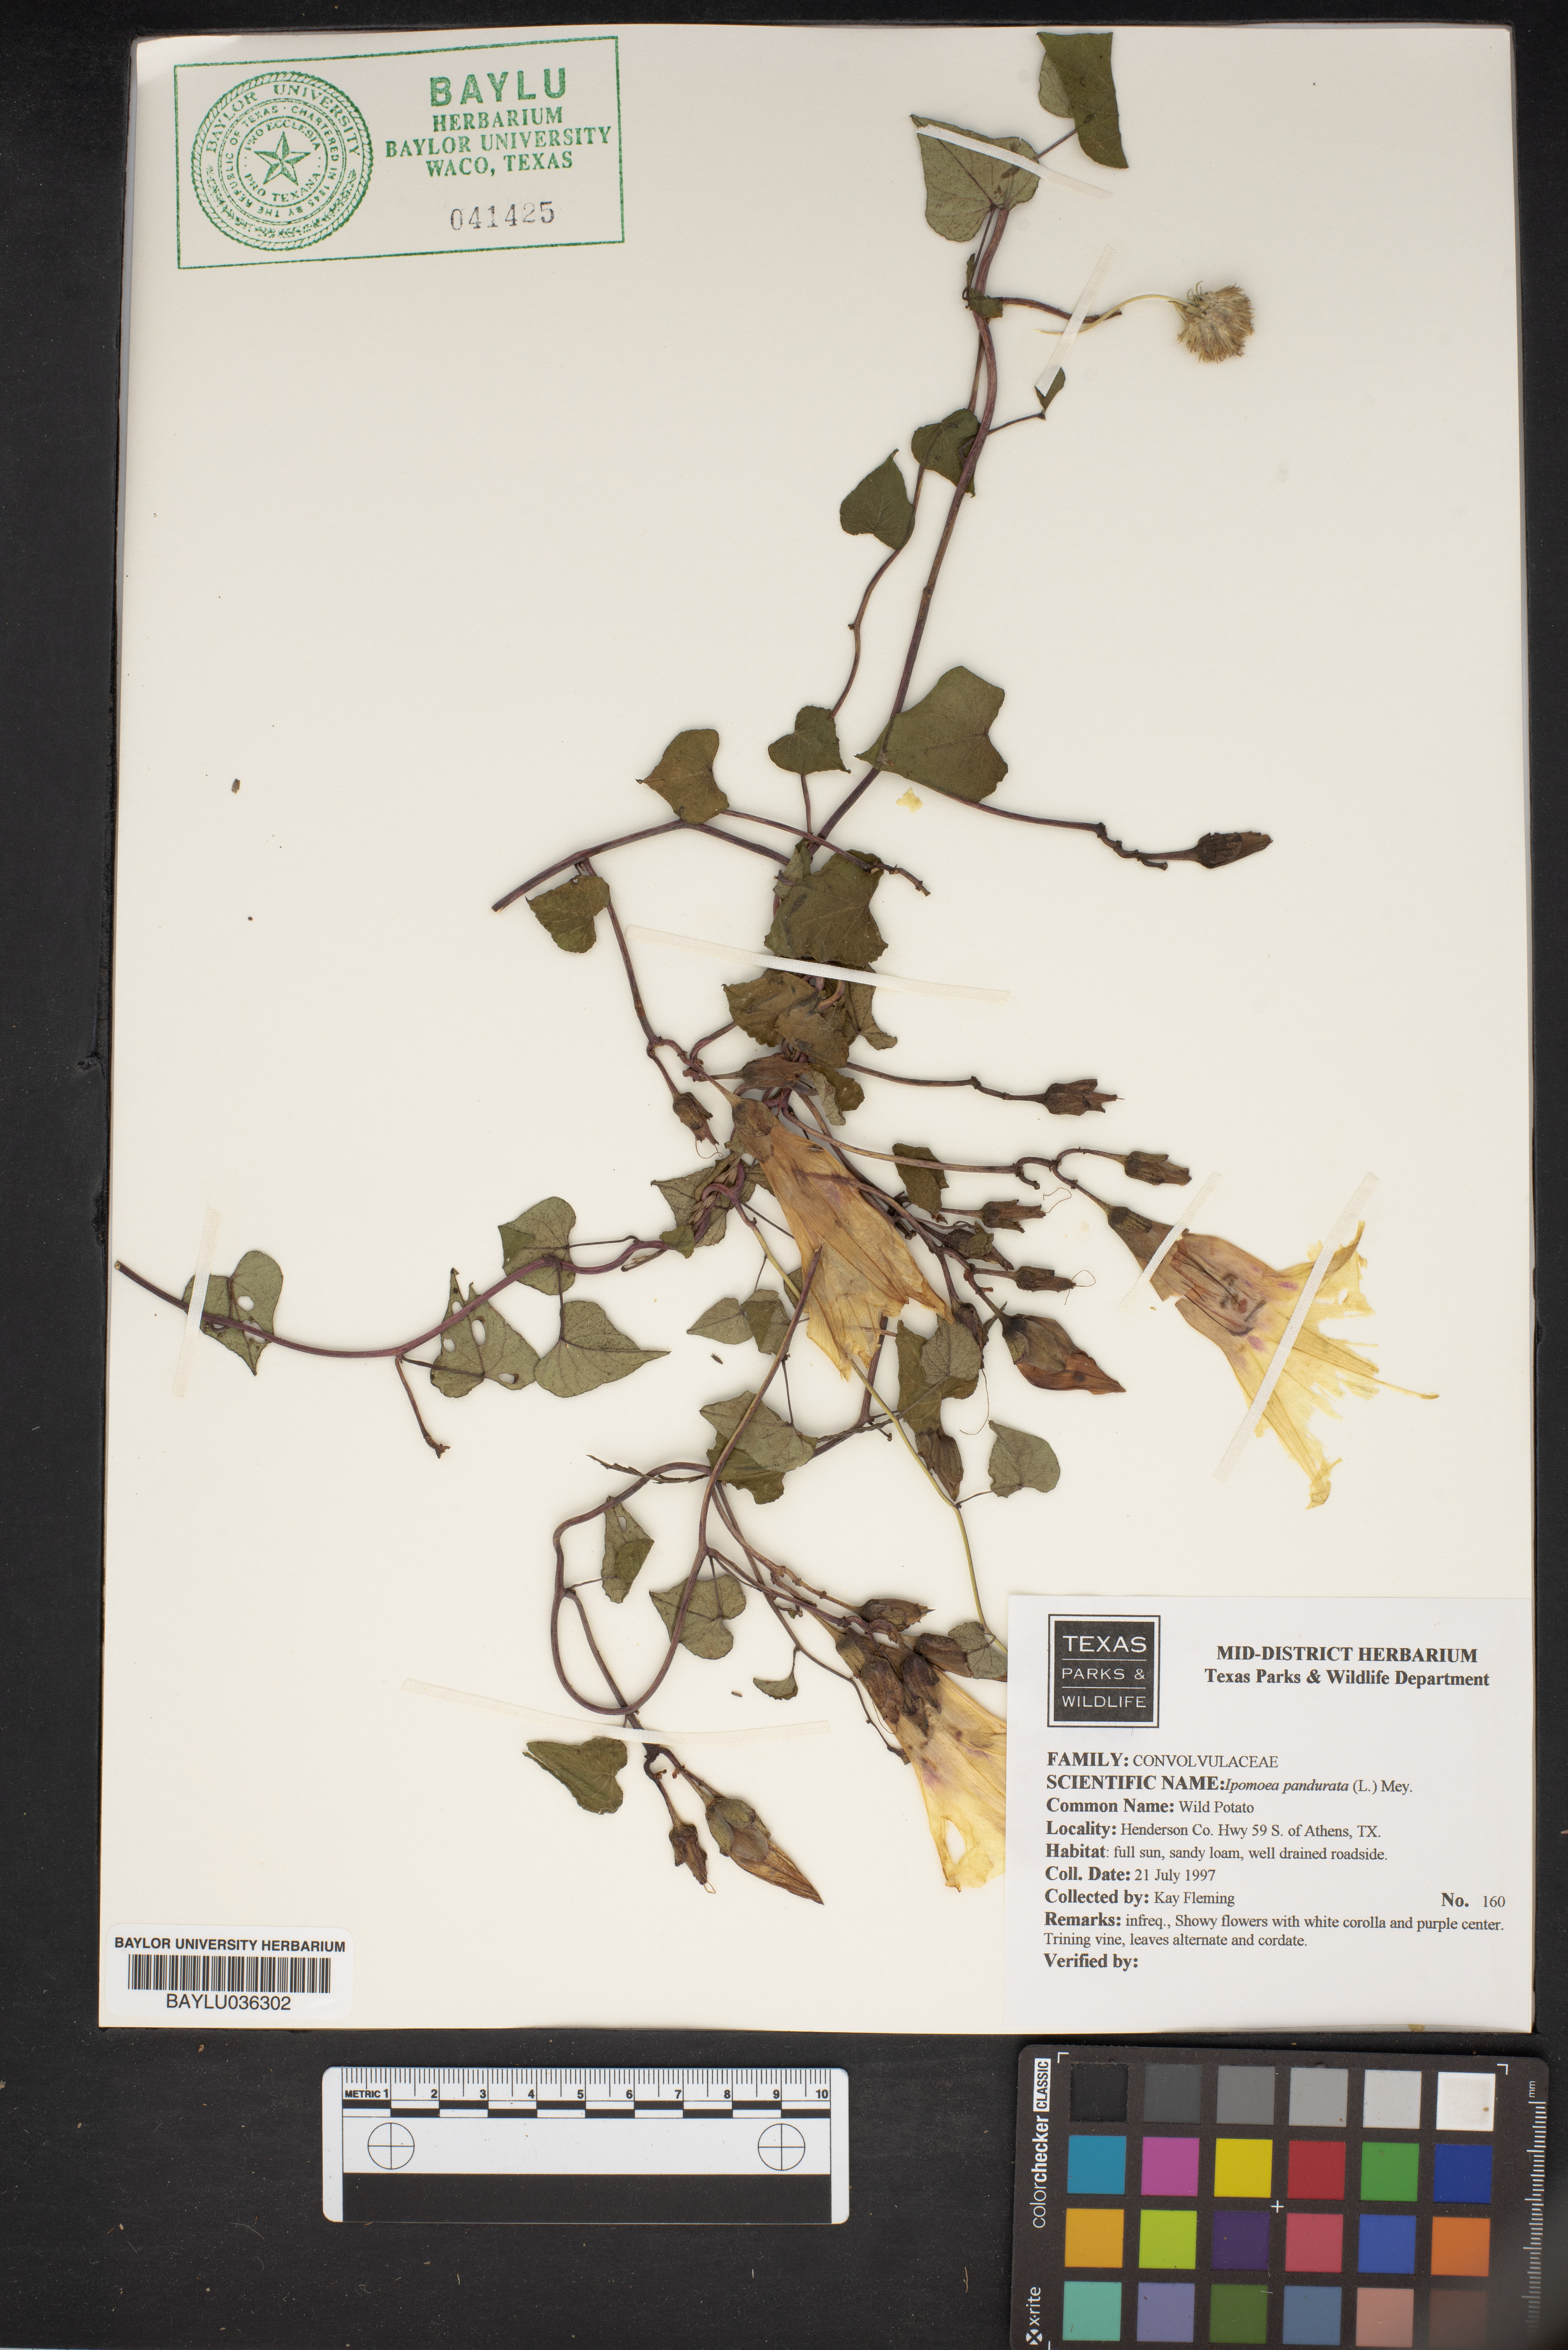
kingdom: Plantae
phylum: Tracheophyta
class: Magnoliopsida
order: Solanales
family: Convolvulaceae
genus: Ipomoea
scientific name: Ipomoea pandurata
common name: Man-of-the-earth
